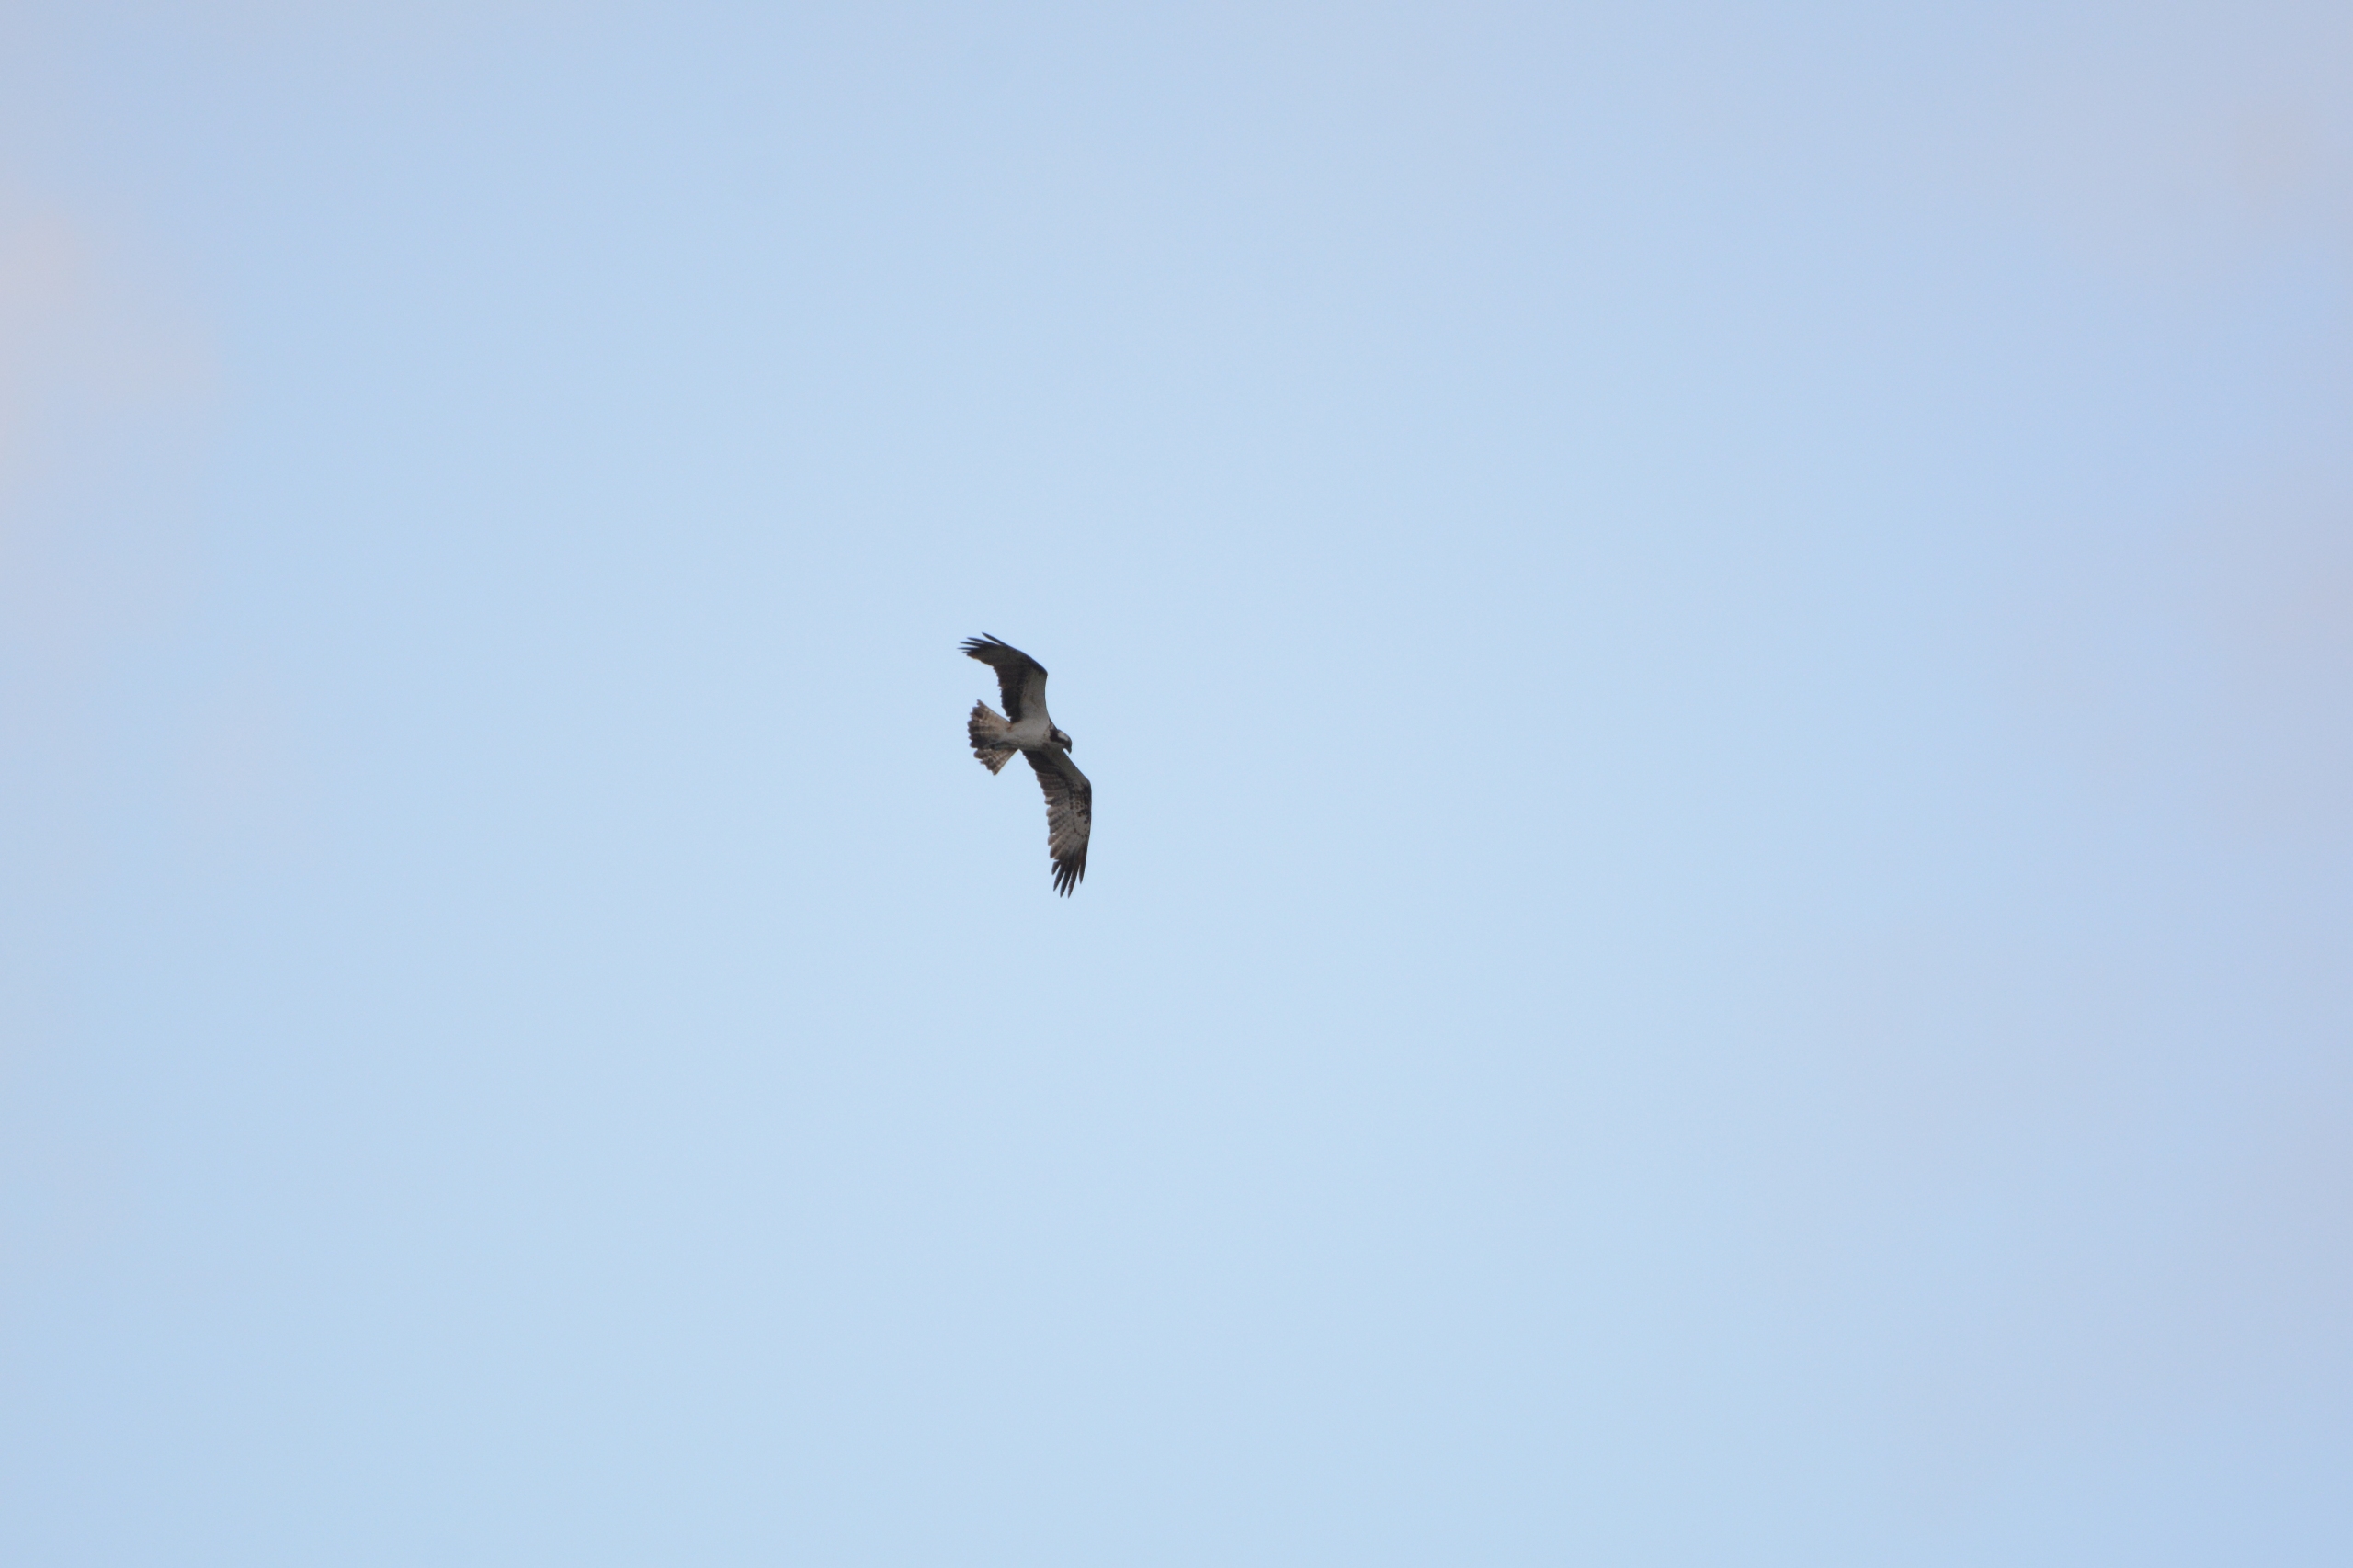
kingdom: Animalia
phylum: Chordata
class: Aves
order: Accipitriformes
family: Pandionidae
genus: Pandion
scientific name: Pandion haliaetus
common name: Fiskeørn
